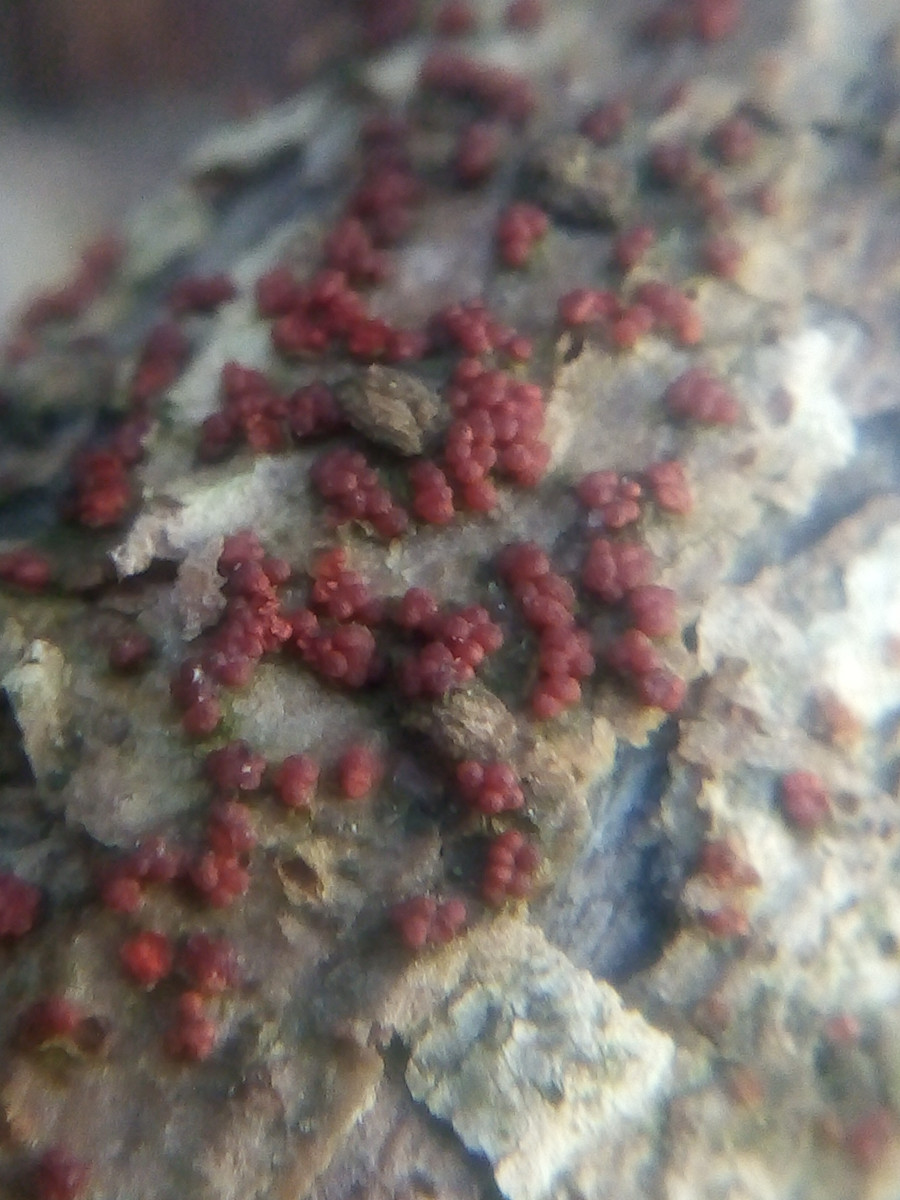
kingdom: Fungi
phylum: Ascomycota
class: Sordariomycetes
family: Thyridiaceae
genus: Thyronectria
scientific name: Thyronectria sinopica
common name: vedbend-cinnobersvamp
